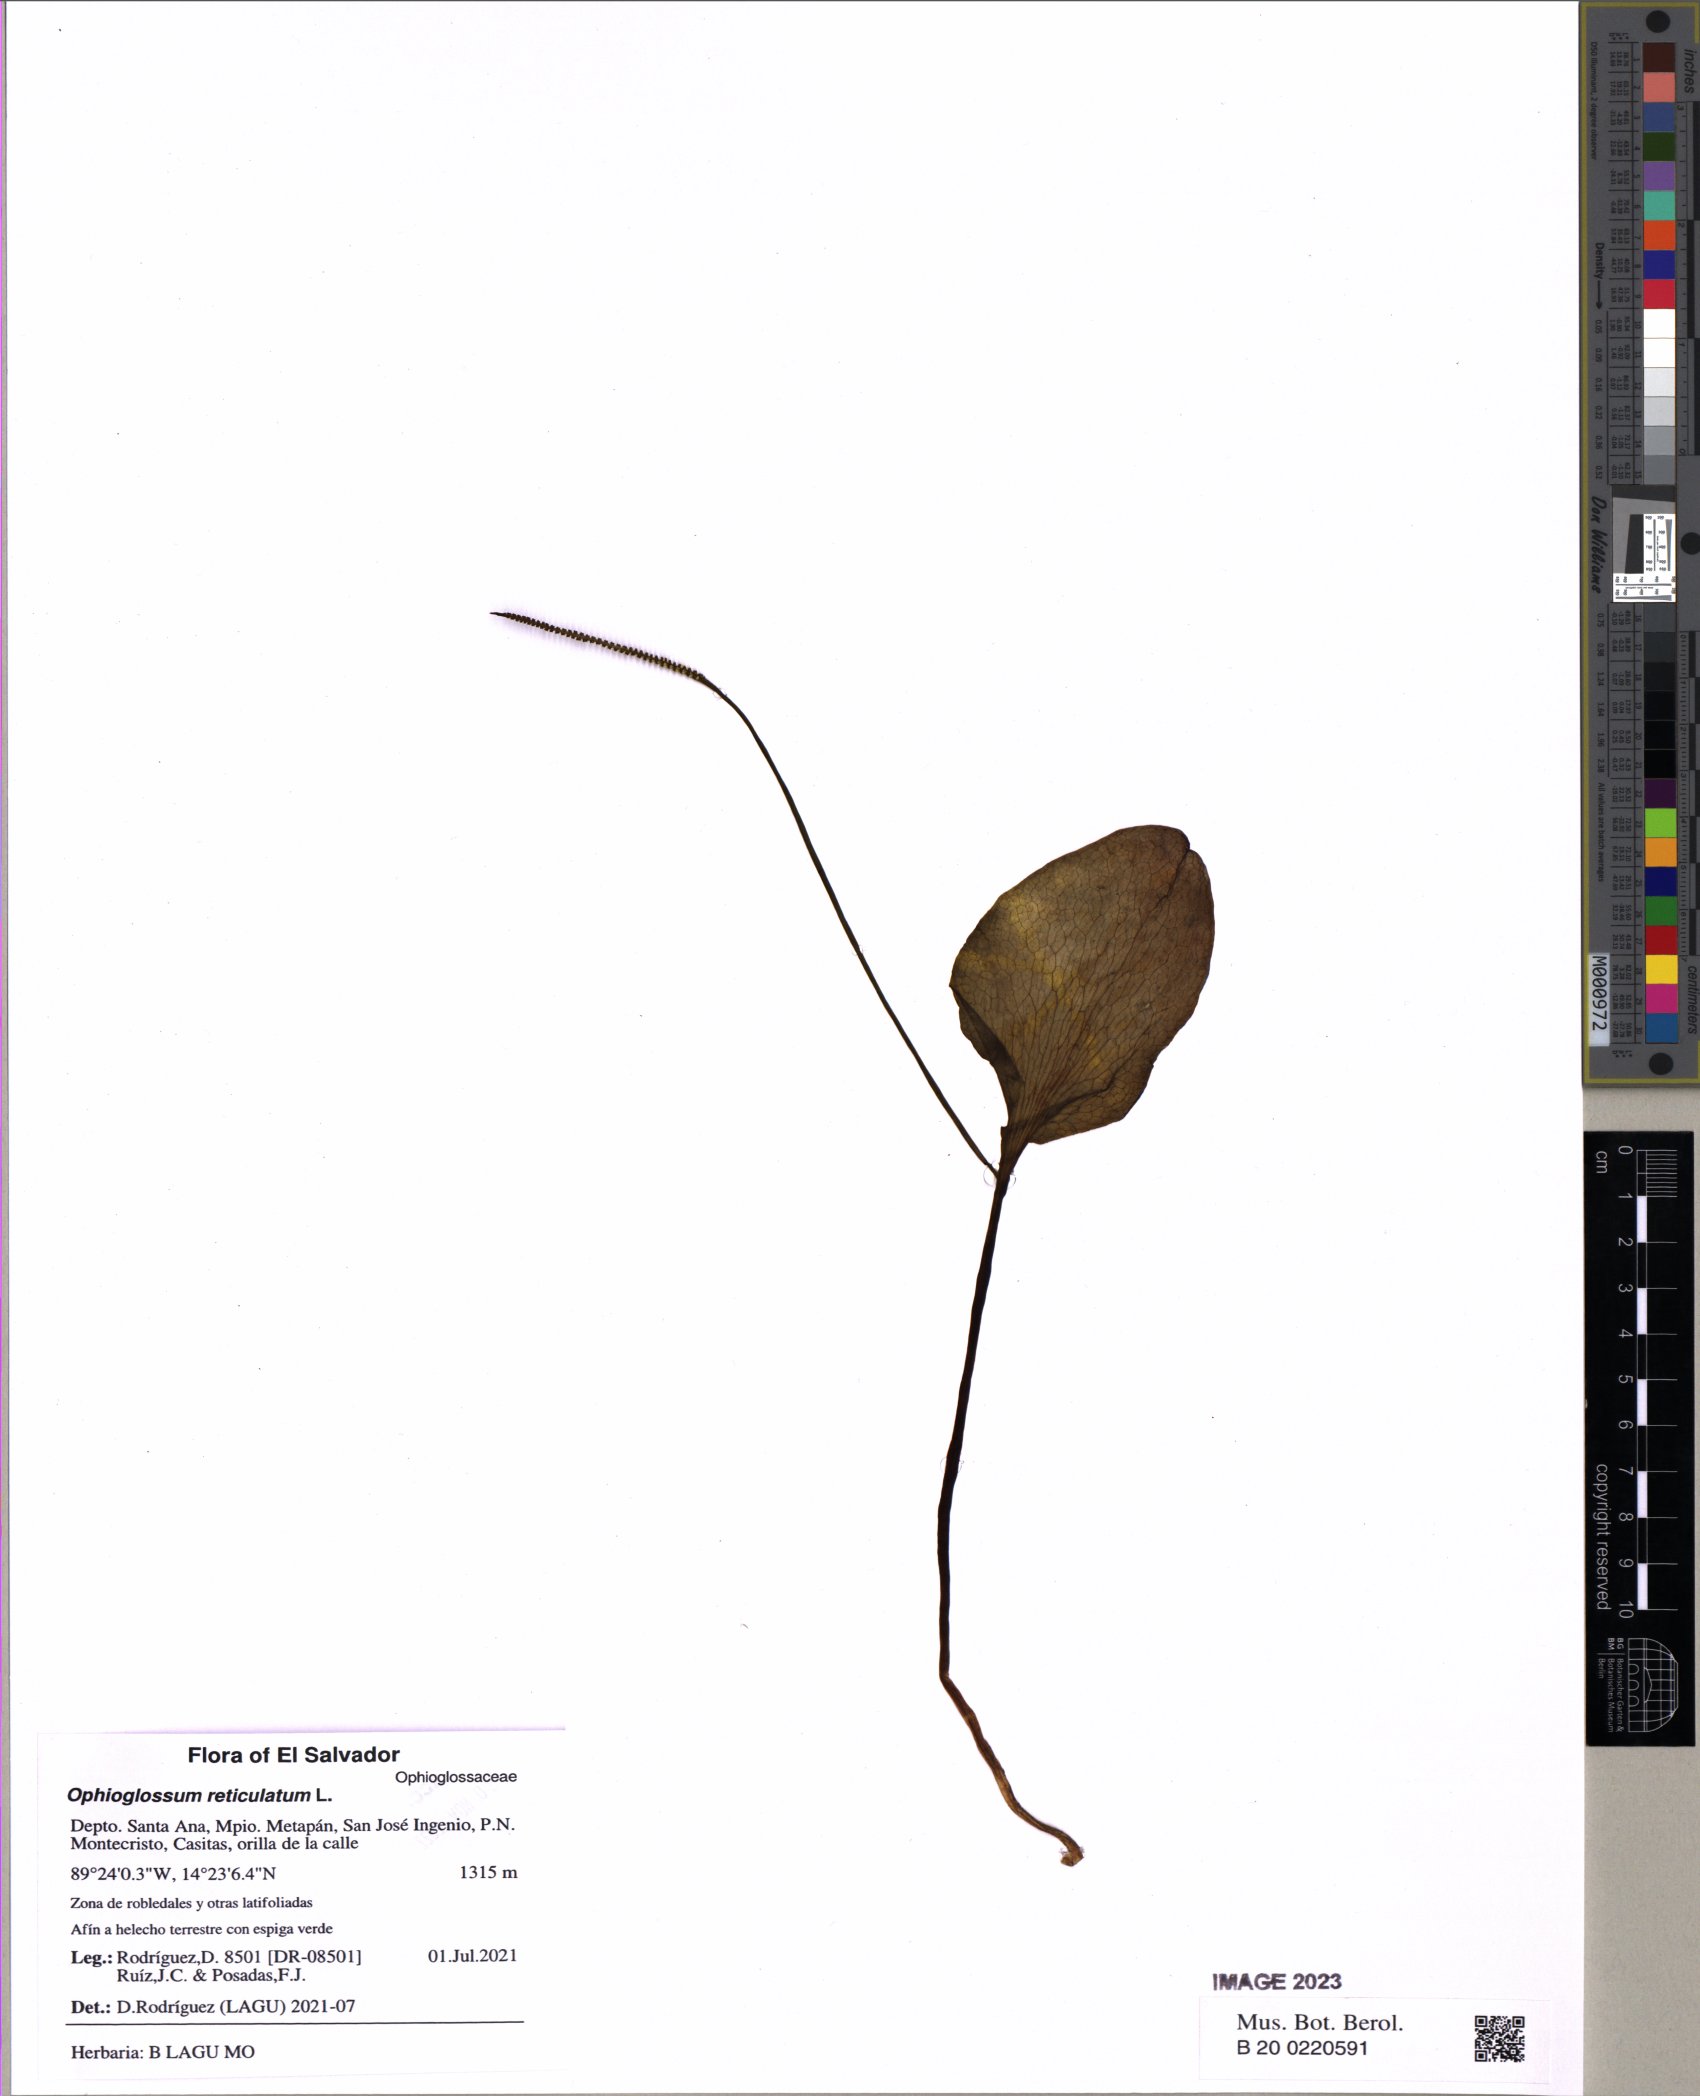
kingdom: Plantae
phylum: Tracheophyta
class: Polypodiopsida
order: Ophioglossales
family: Ophioglossaceae
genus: Ophioglossum
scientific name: Ophioglossum reticulatum
